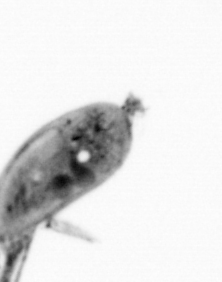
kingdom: Animalia
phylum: Arthropoda
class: Maxillopoda
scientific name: Maxillopoda
